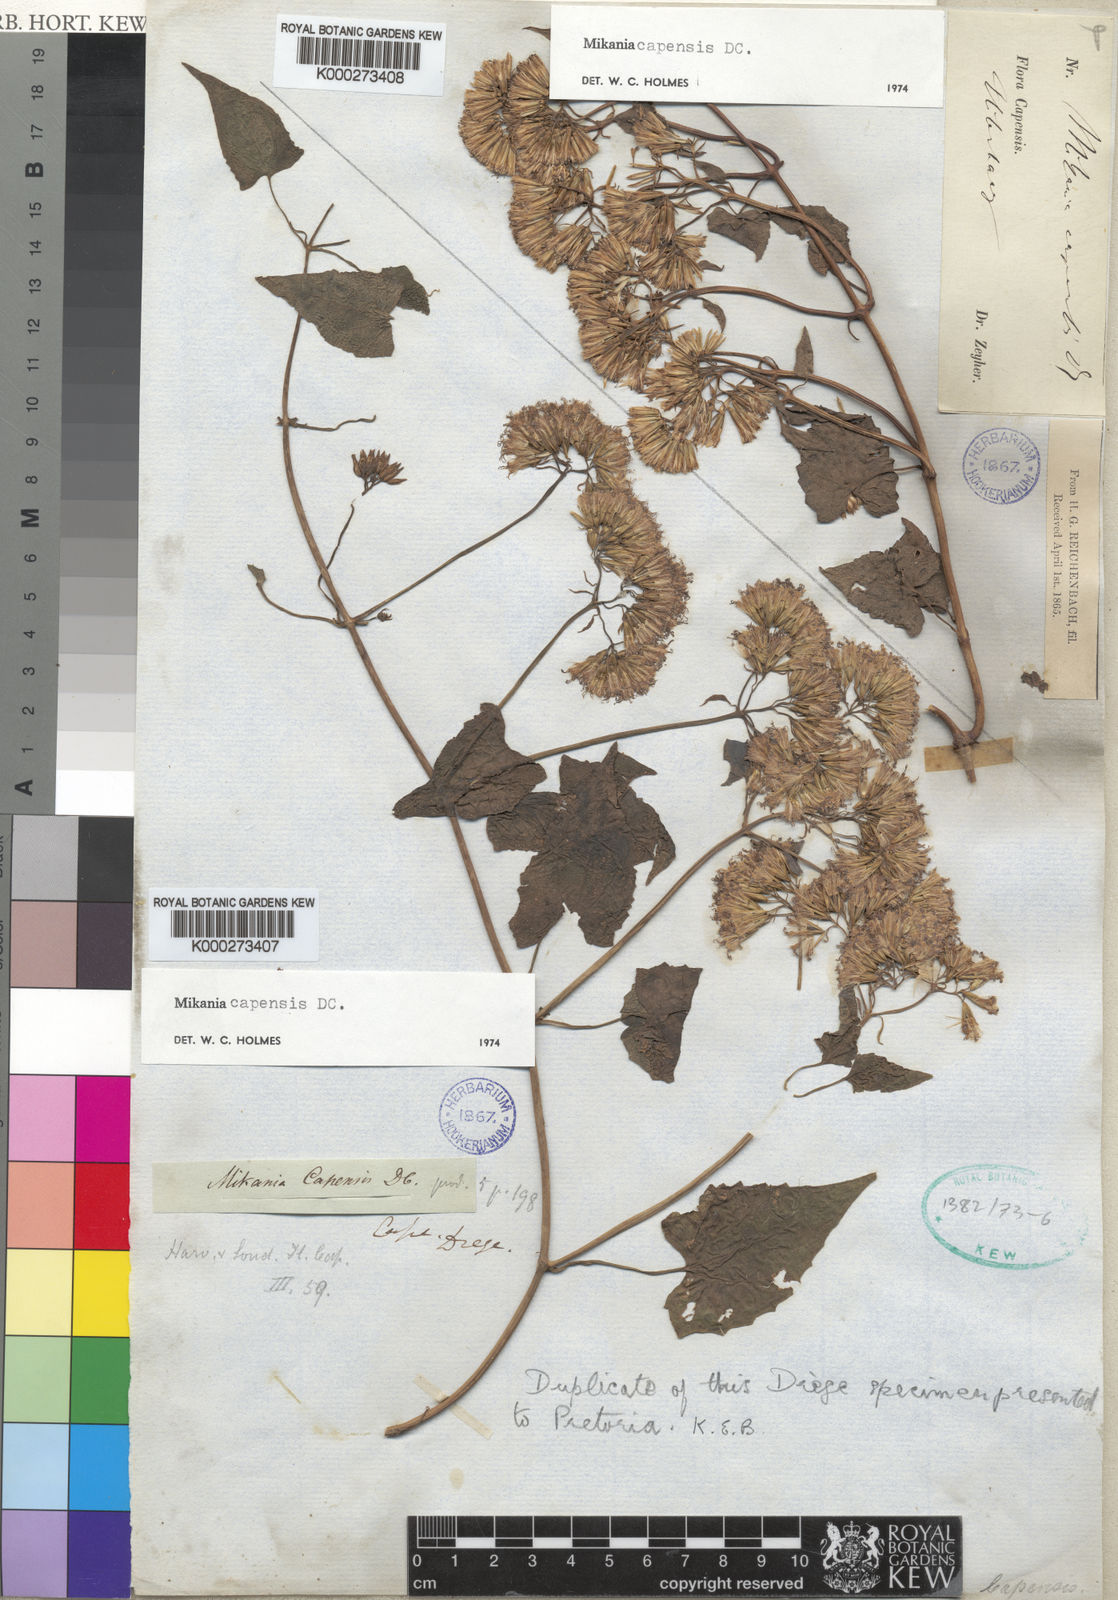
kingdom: Plantae
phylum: Tracheophyta
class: Magnoliopsida
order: Asterales
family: Asteraceae
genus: Mikania
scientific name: Mikania chenopodifolia
